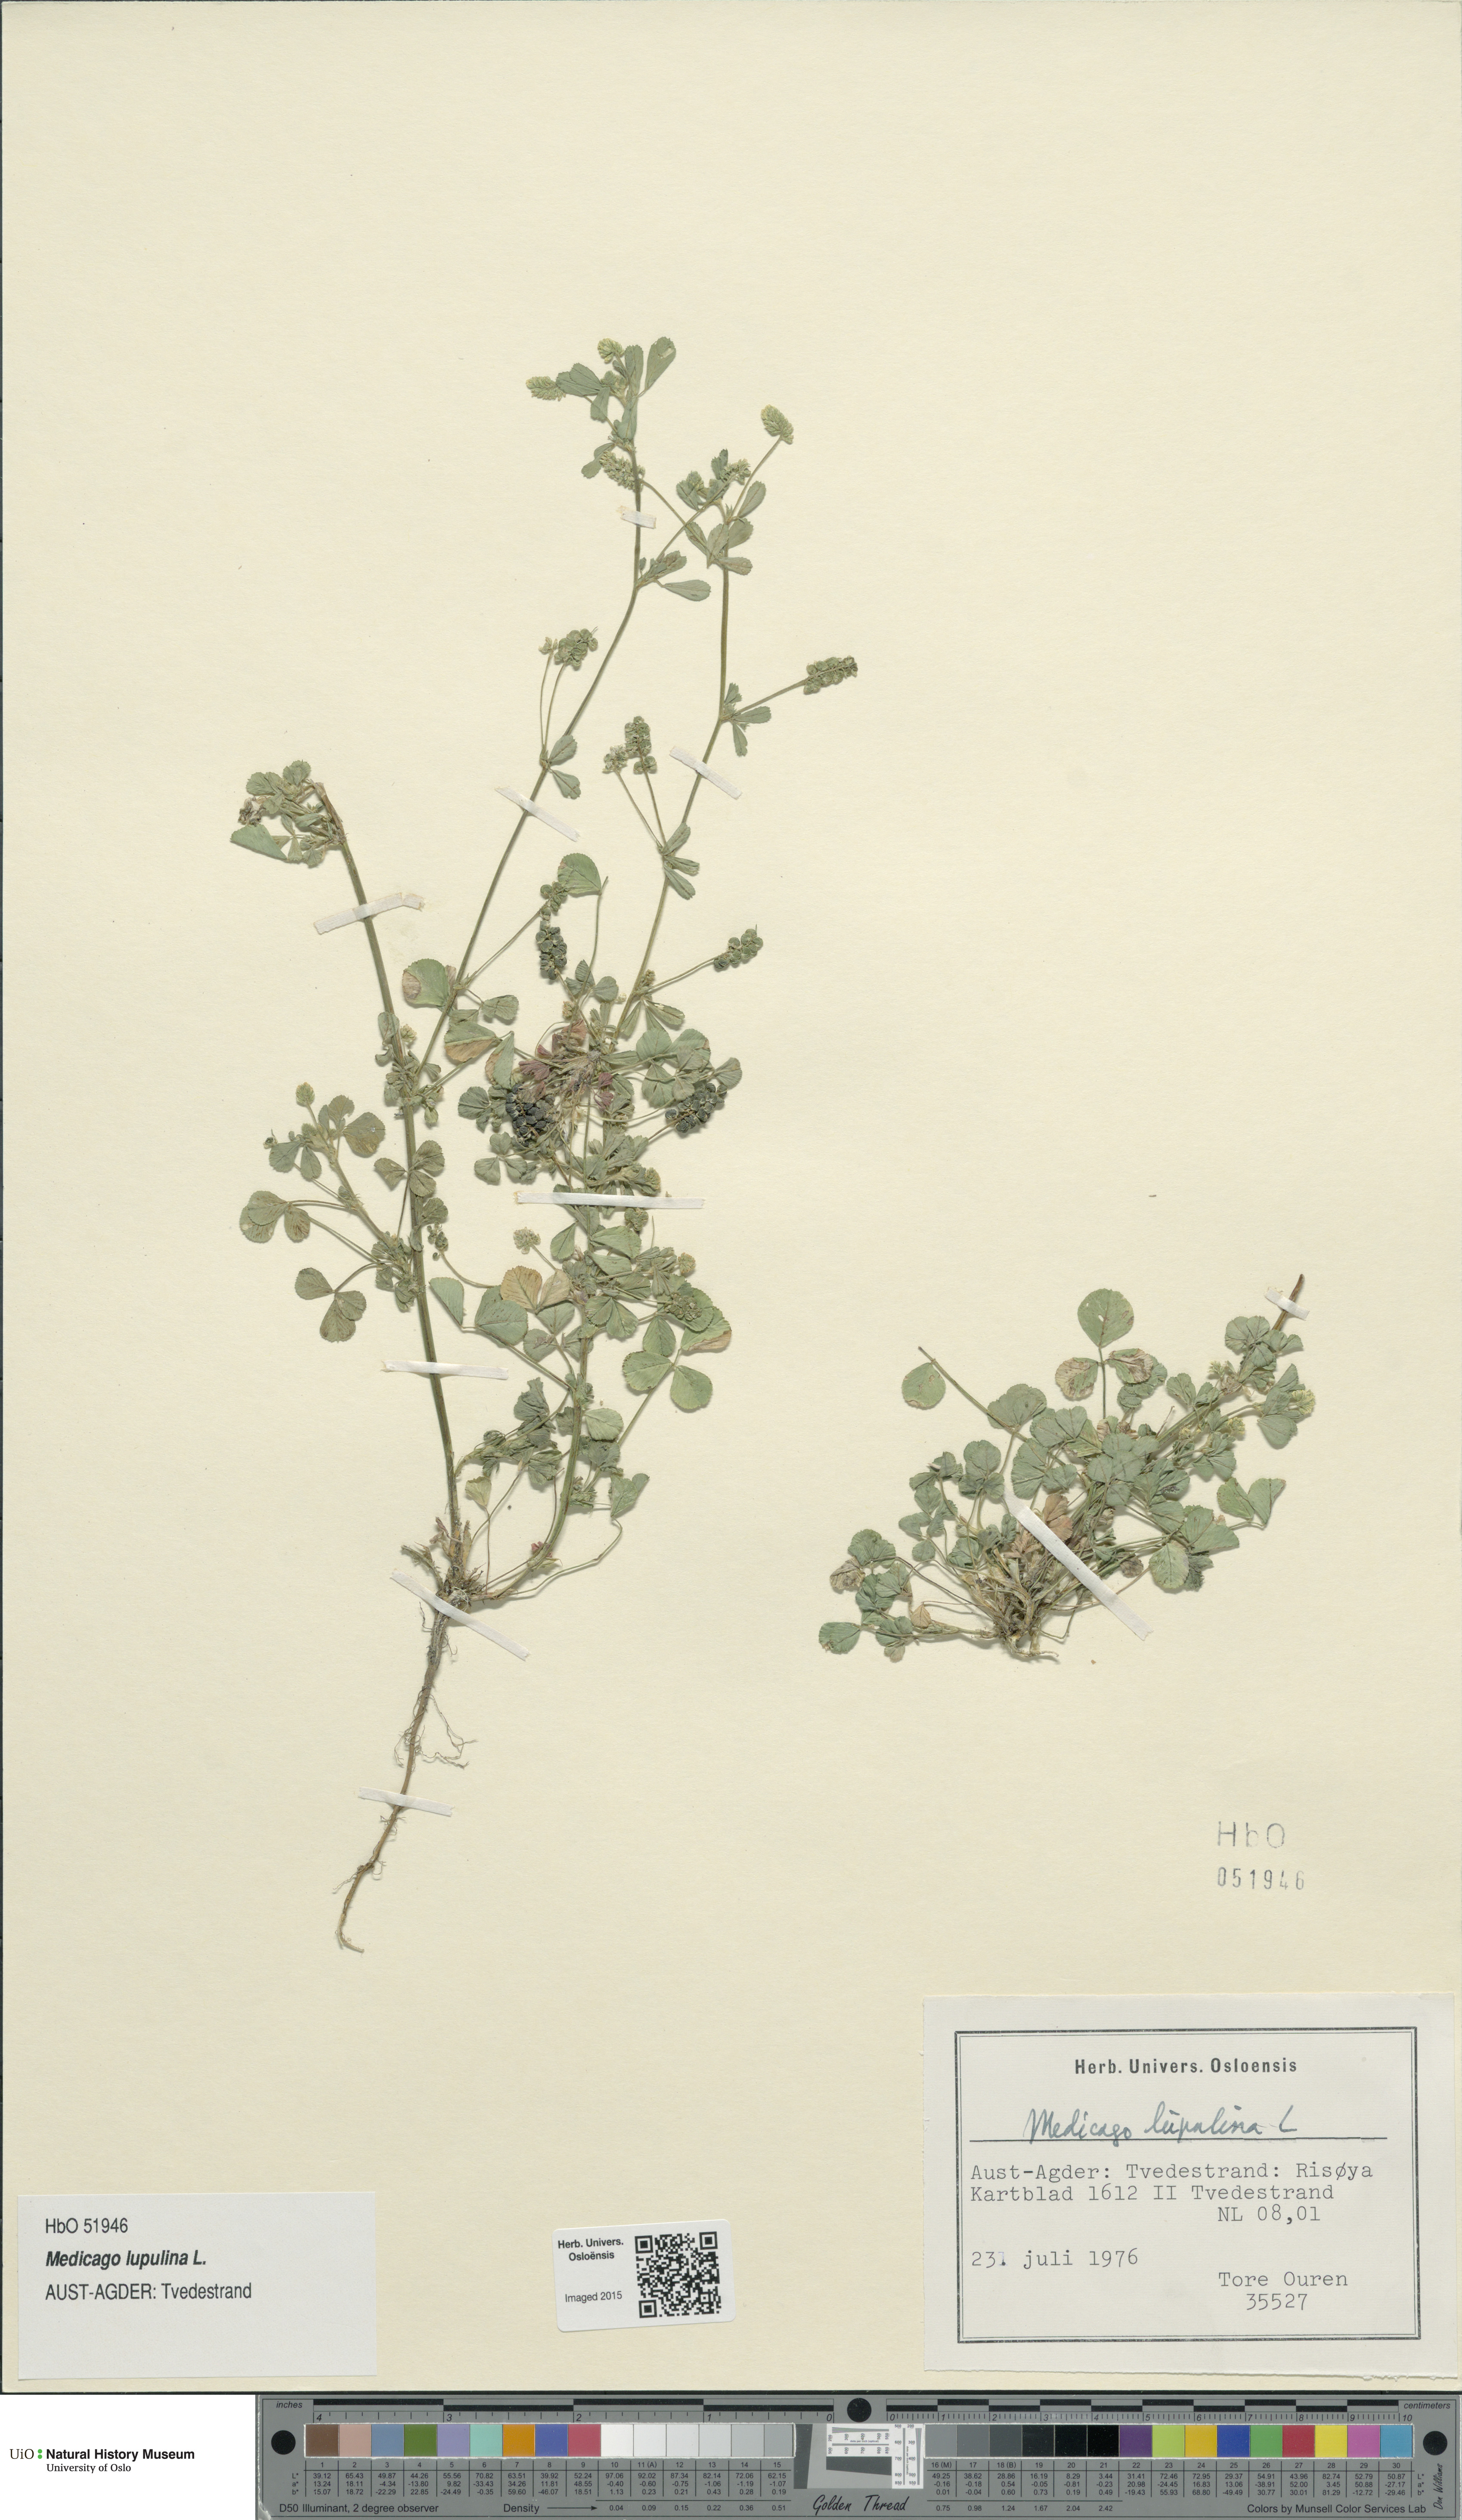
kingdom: Plantae
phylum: Tracheophyta
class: Magnoliopsida
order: Fabales
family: Fabaceae
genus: Medicago
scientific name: Medicago lupulina
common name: Black medick
